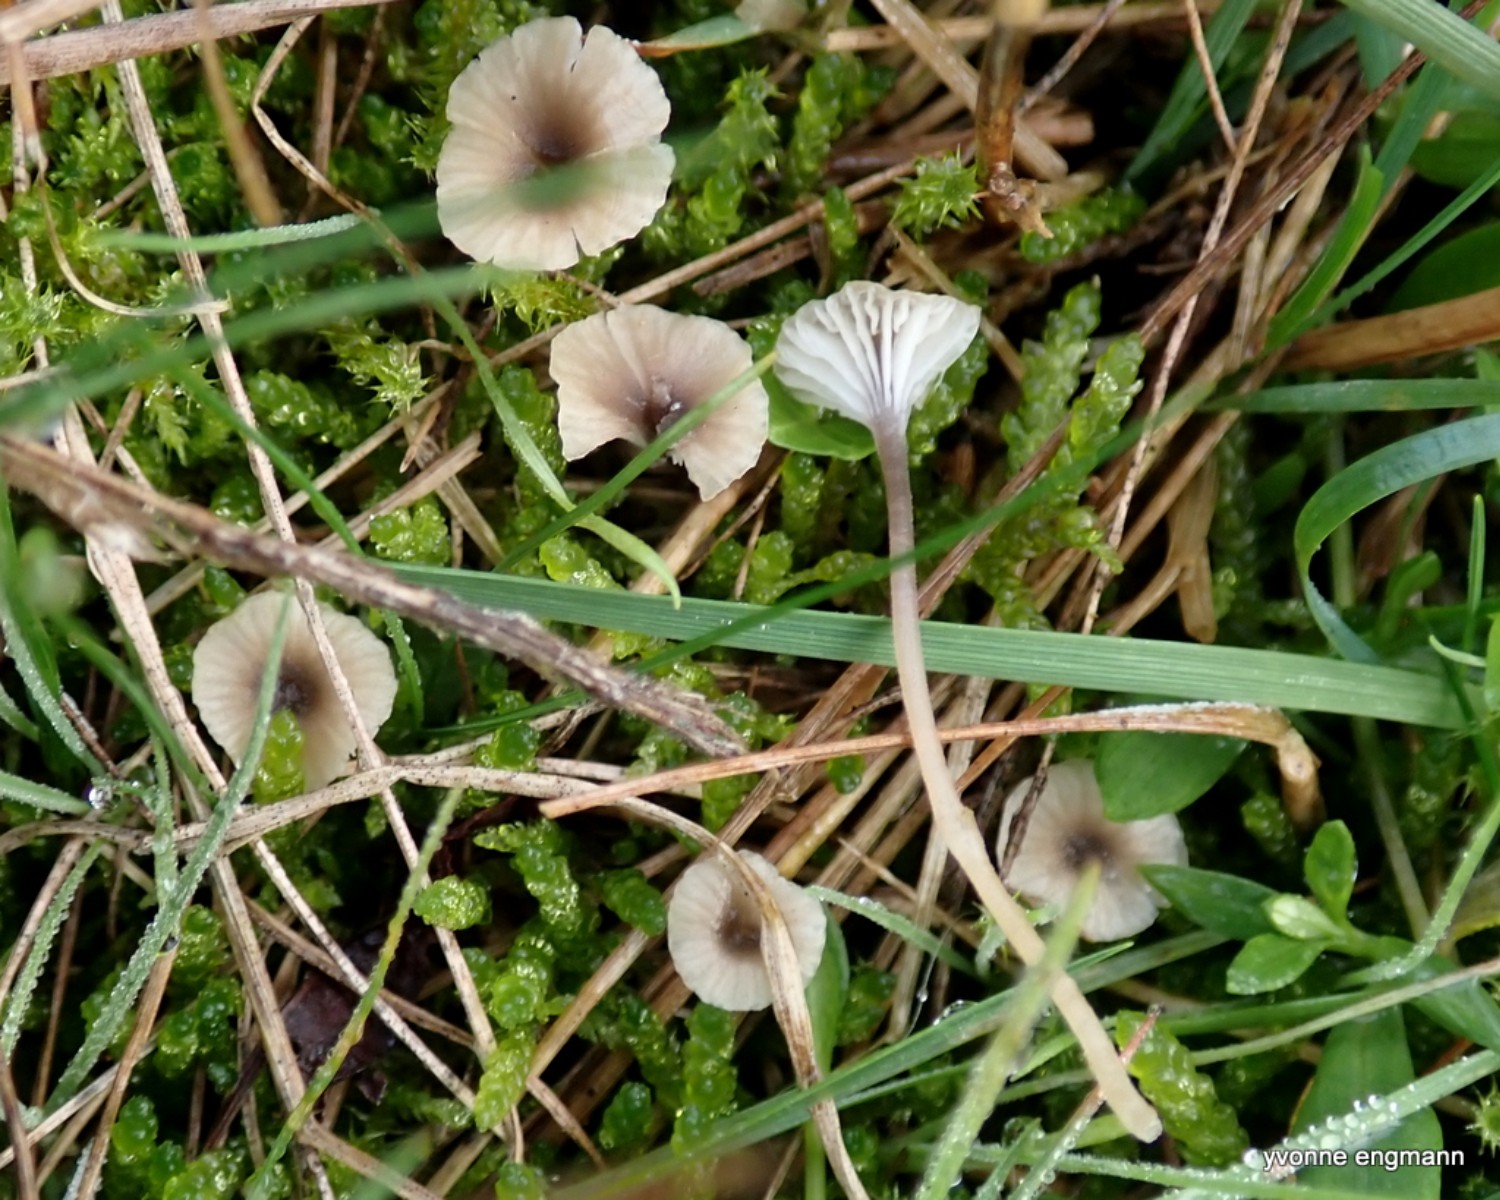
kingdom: Fungi
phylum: Basidiomycota
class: Agaricomycetes
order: Hymenochaetales
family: Rickenellaceae
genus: Rickenella
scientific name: Rickenella swartzii
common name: finstokket mosnavlehat
